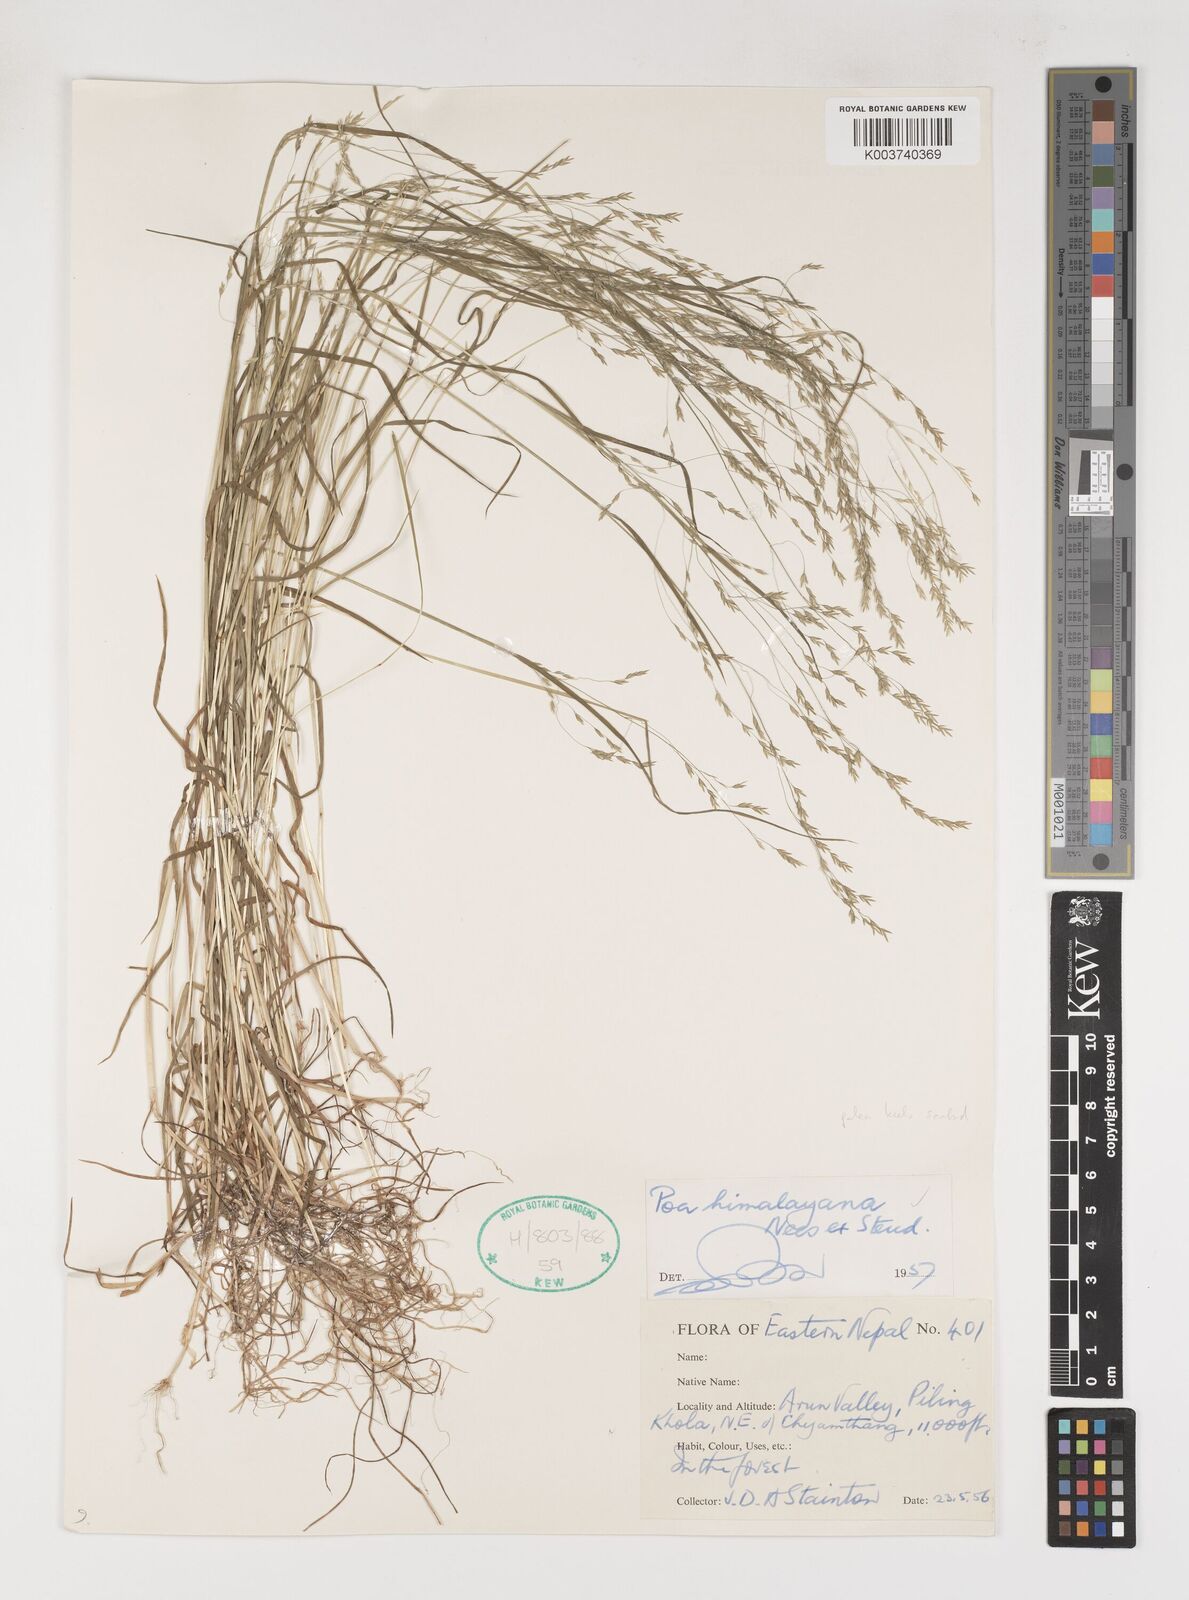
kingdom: Plantae
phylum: Tracheophyta
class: Liliopsida
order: Poales
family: Poaceae
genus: Poa
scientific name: Poa himalayana
